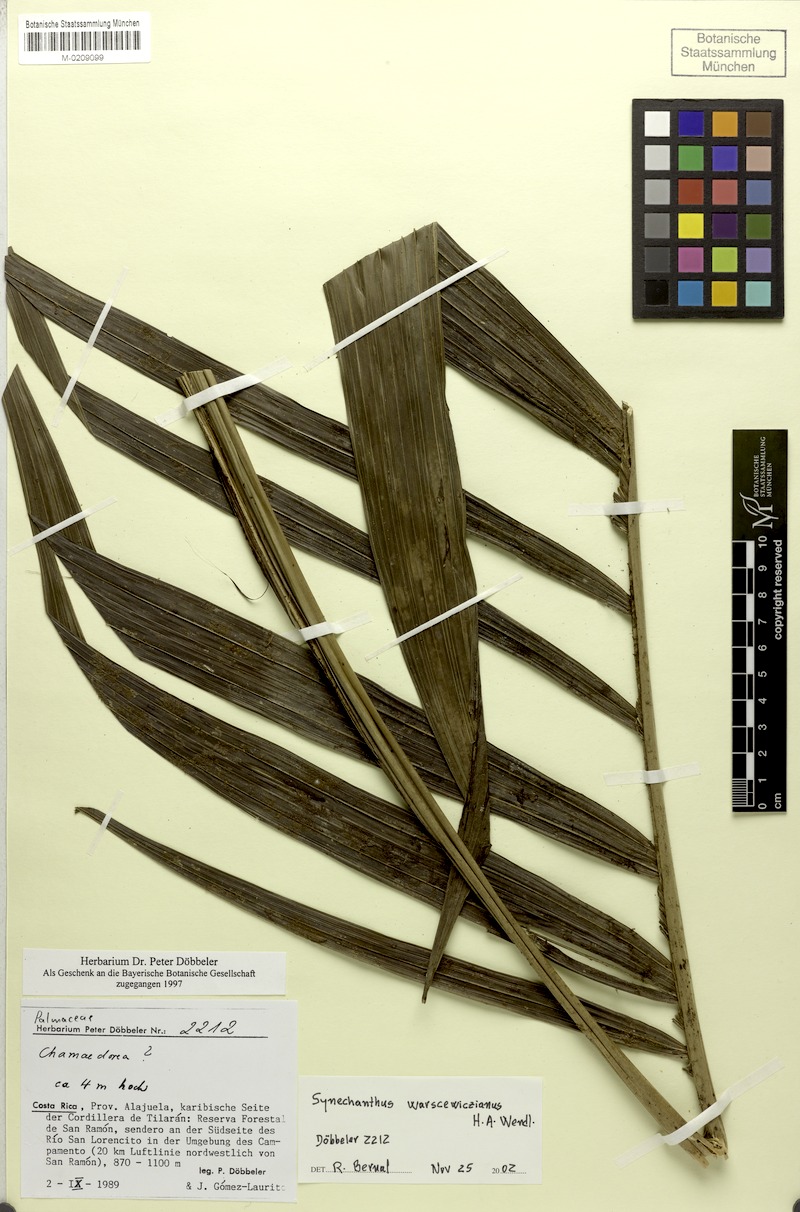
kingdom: Plantae
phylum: Tracheophyta
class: Liliopsida
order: Arecales
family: Arecaceae
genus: Synechanthus
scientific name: Synechanthus warscewiczianus
